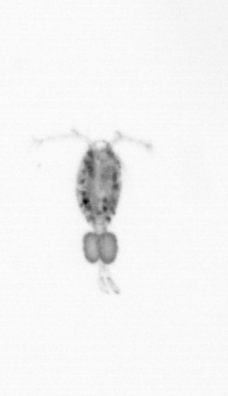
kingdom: Animalia
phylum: Arthropoda
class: Copepoda
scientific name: Copepoda
